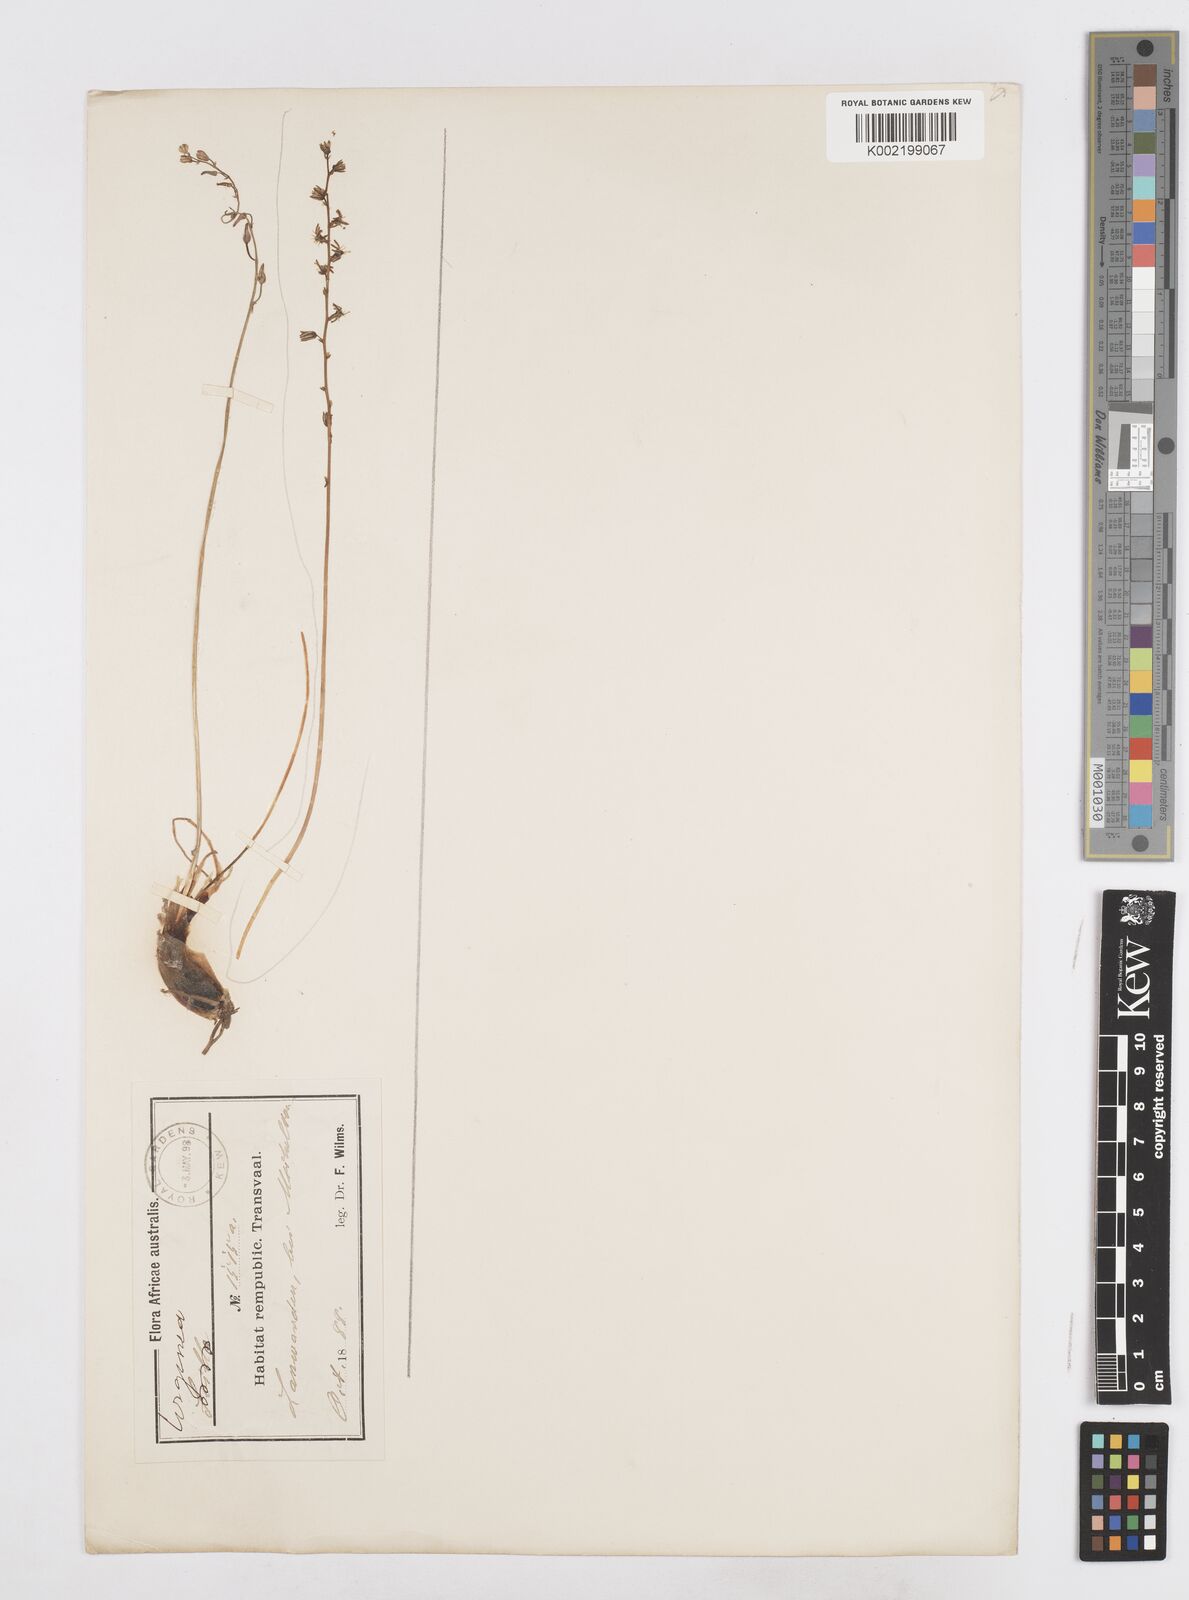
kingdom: Plantae
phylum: Tracheophyta
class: Liliopsida
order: Asparagales
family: Asparagaceae
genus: Drimia
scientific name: Drimia
